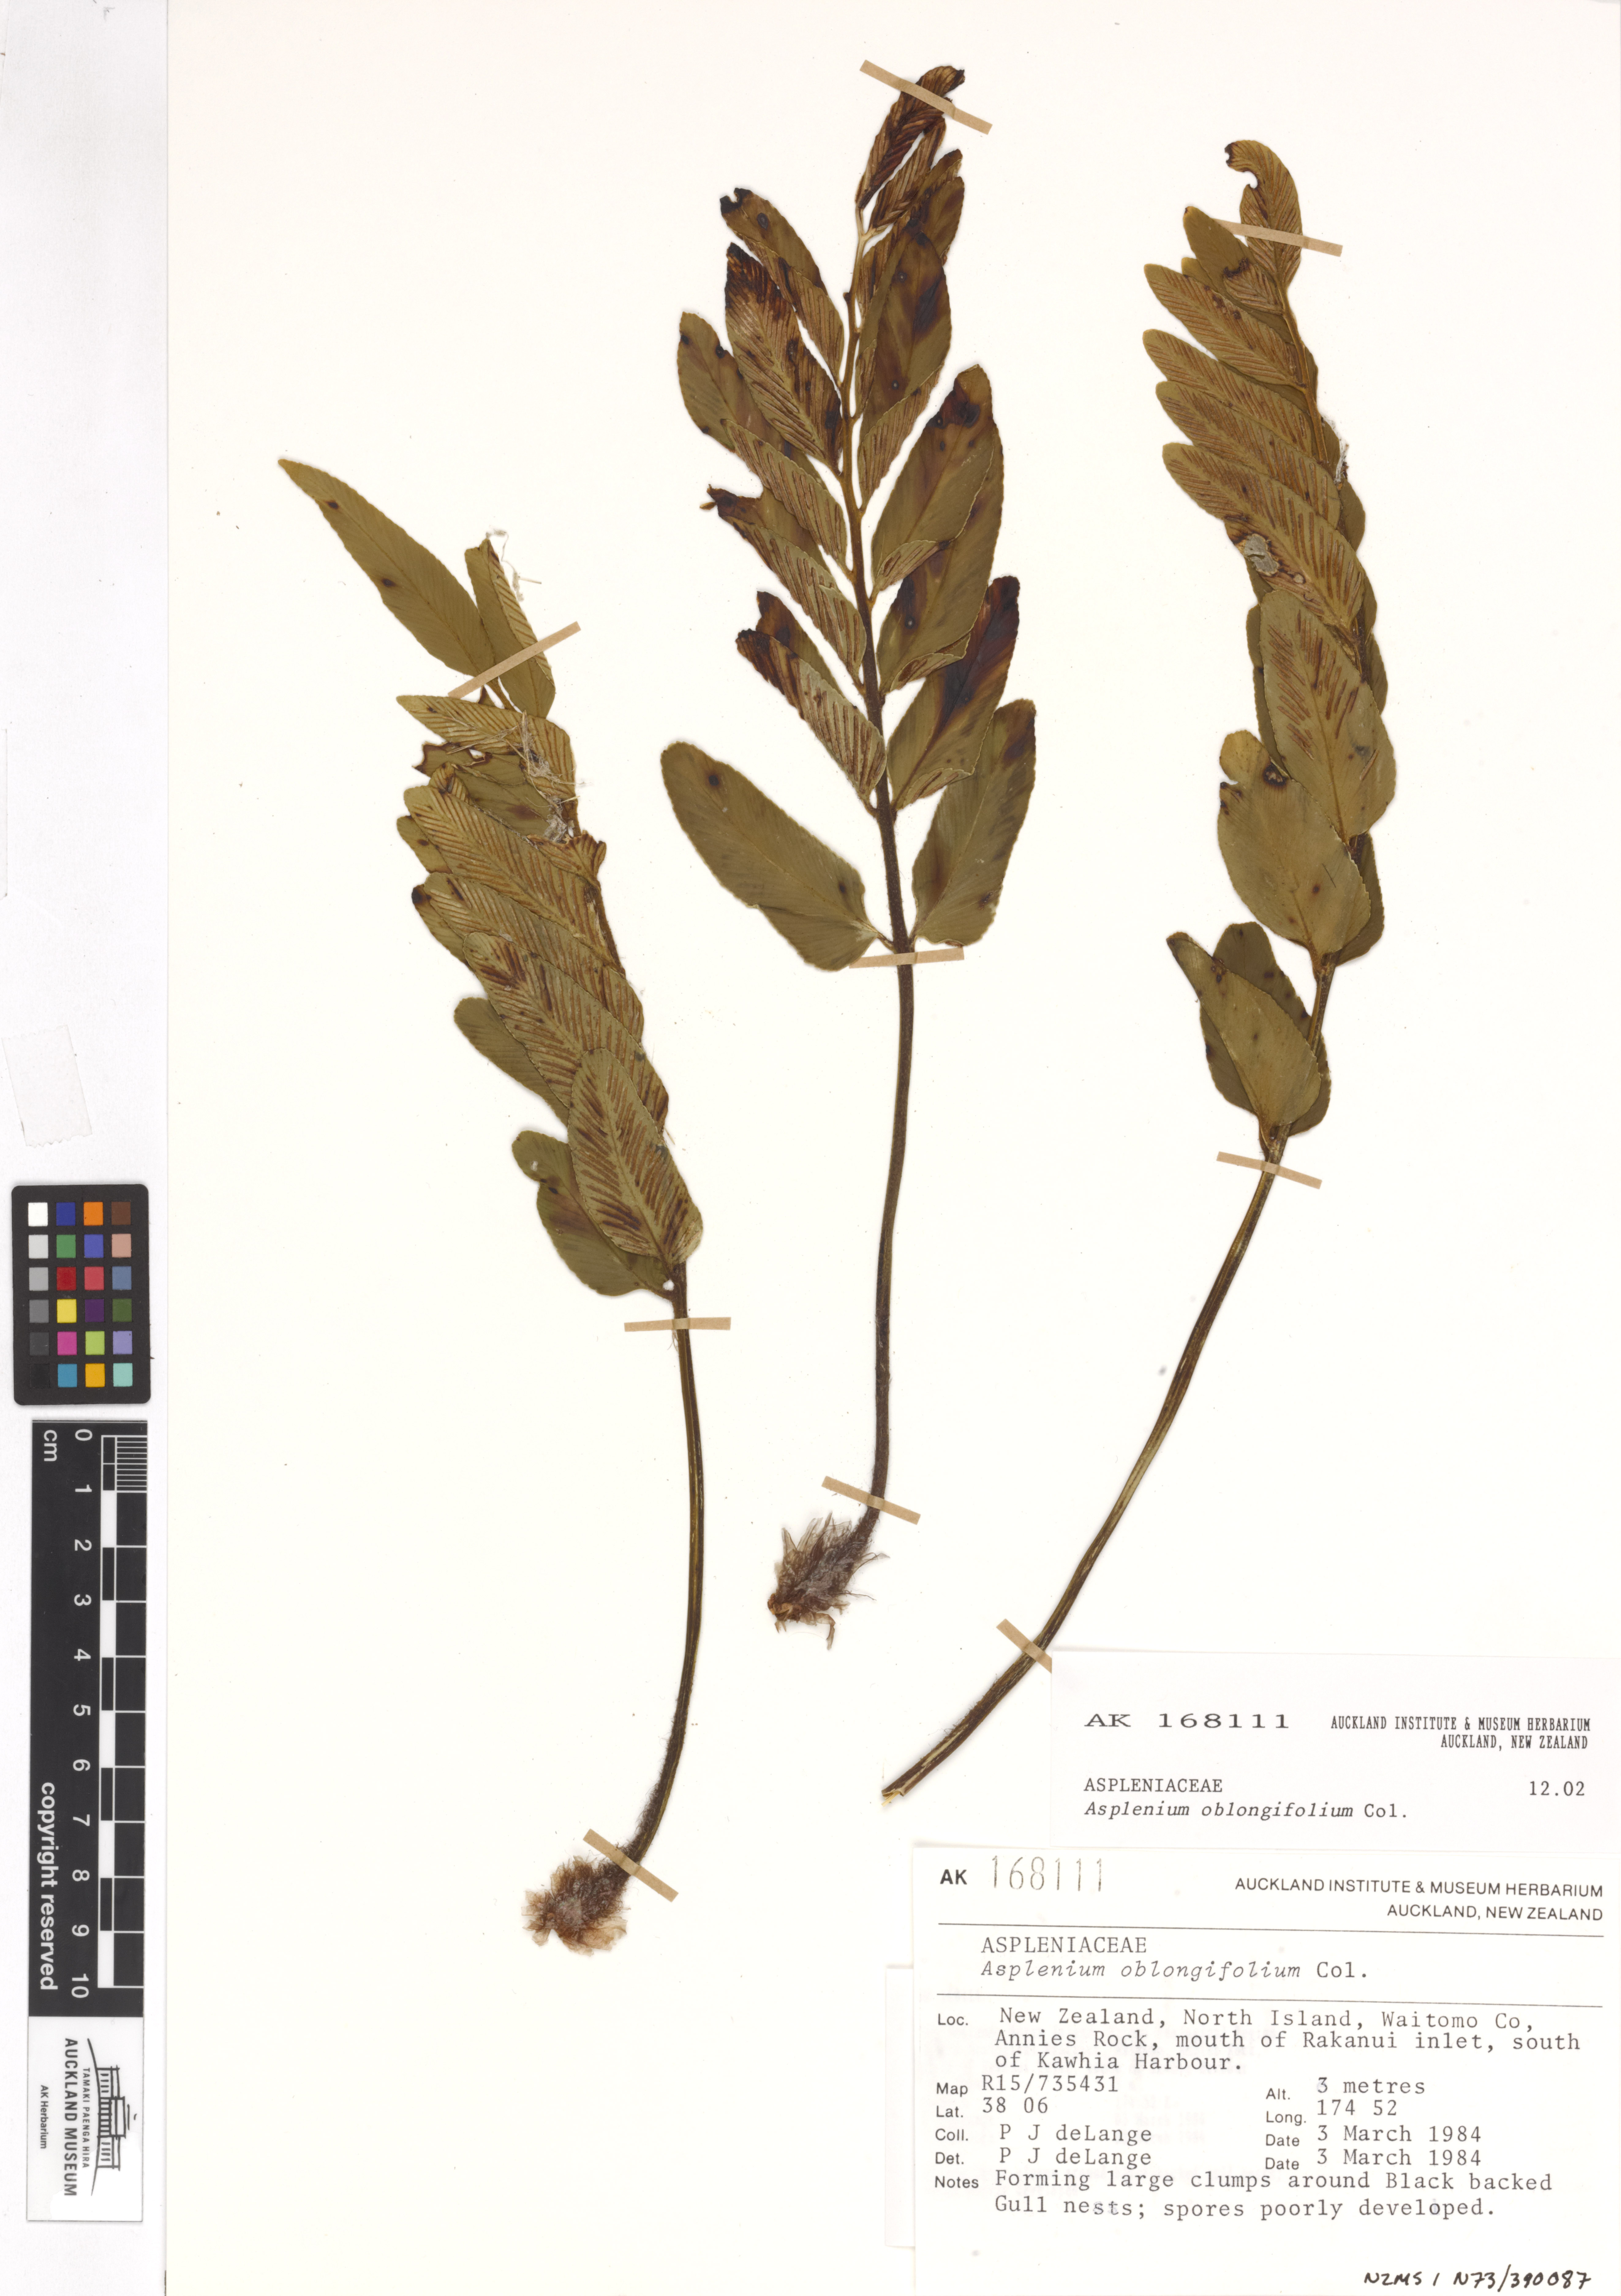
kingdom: Plantae
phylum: Tracheophyta
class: Polypodiopsida
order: Polypodiales
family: Aspleniaceae
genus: Asplenium
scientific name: Asplenium oblongifolium
